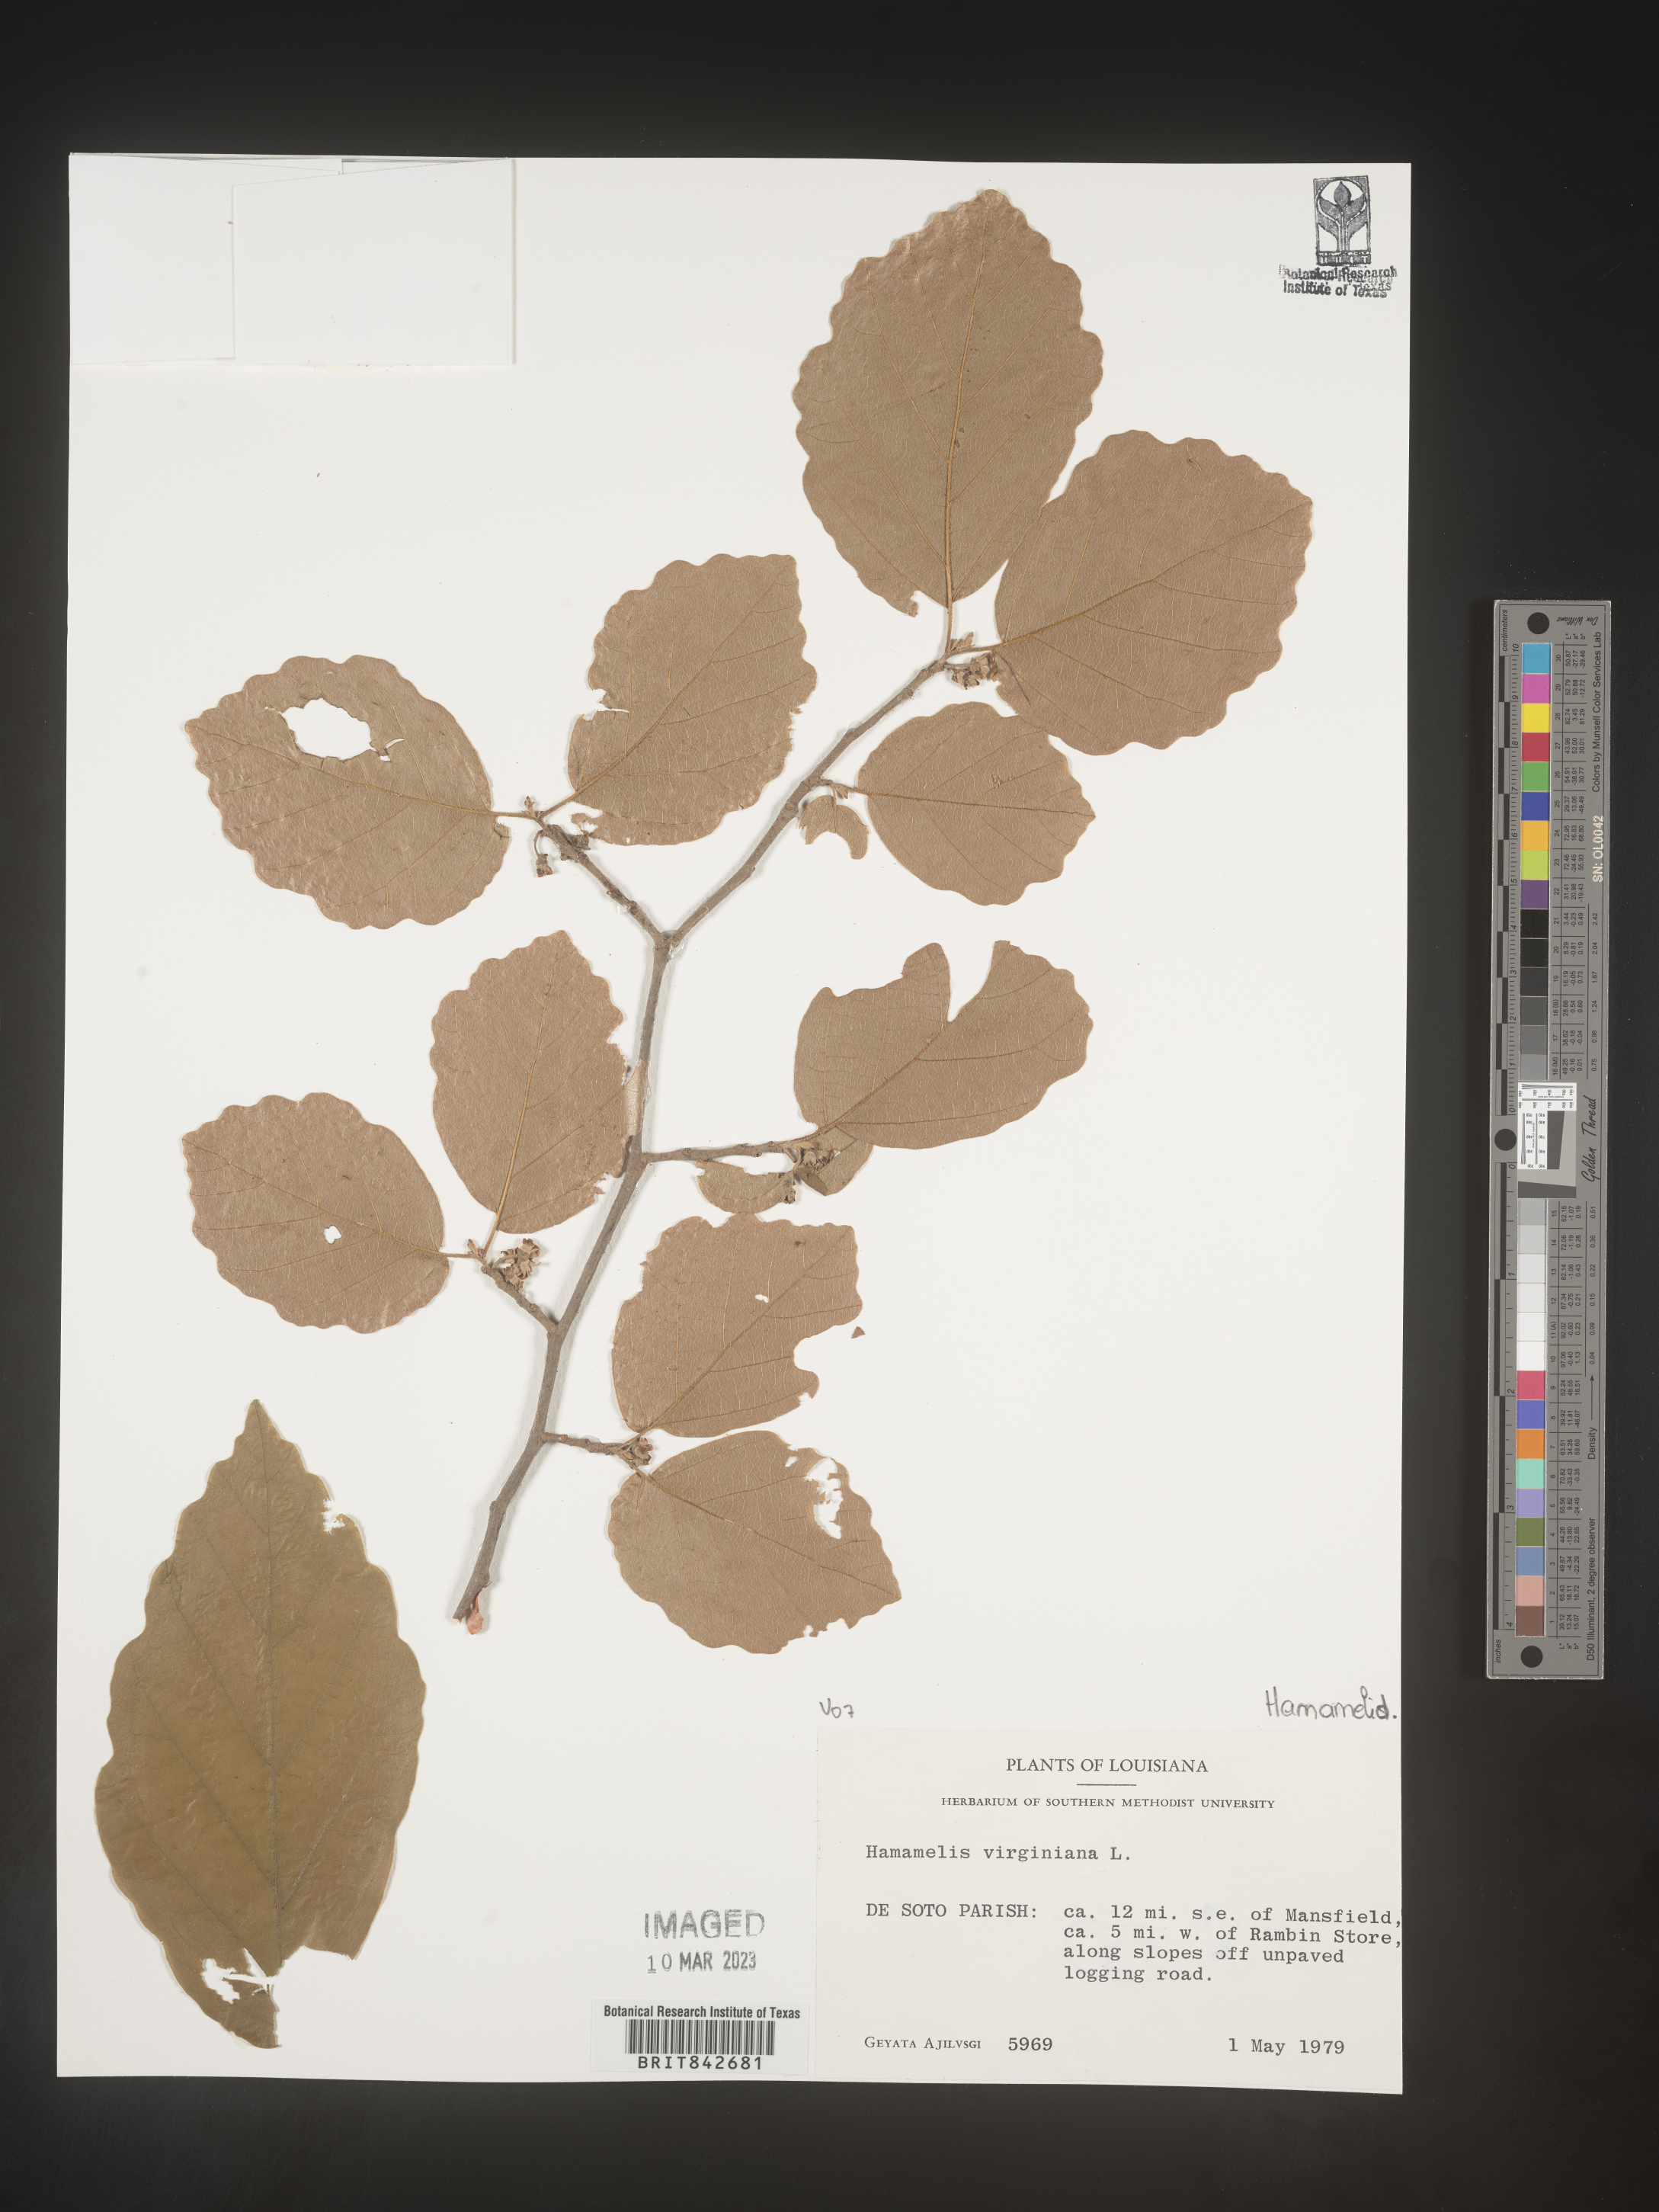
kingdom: Plantae
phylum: Tracheophyta
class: Magnoliopsida
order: Saxifragales
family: Hamamelidaceae
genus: Hamamelis
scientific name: Hamamelis virginiana
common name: Witch-hazel
